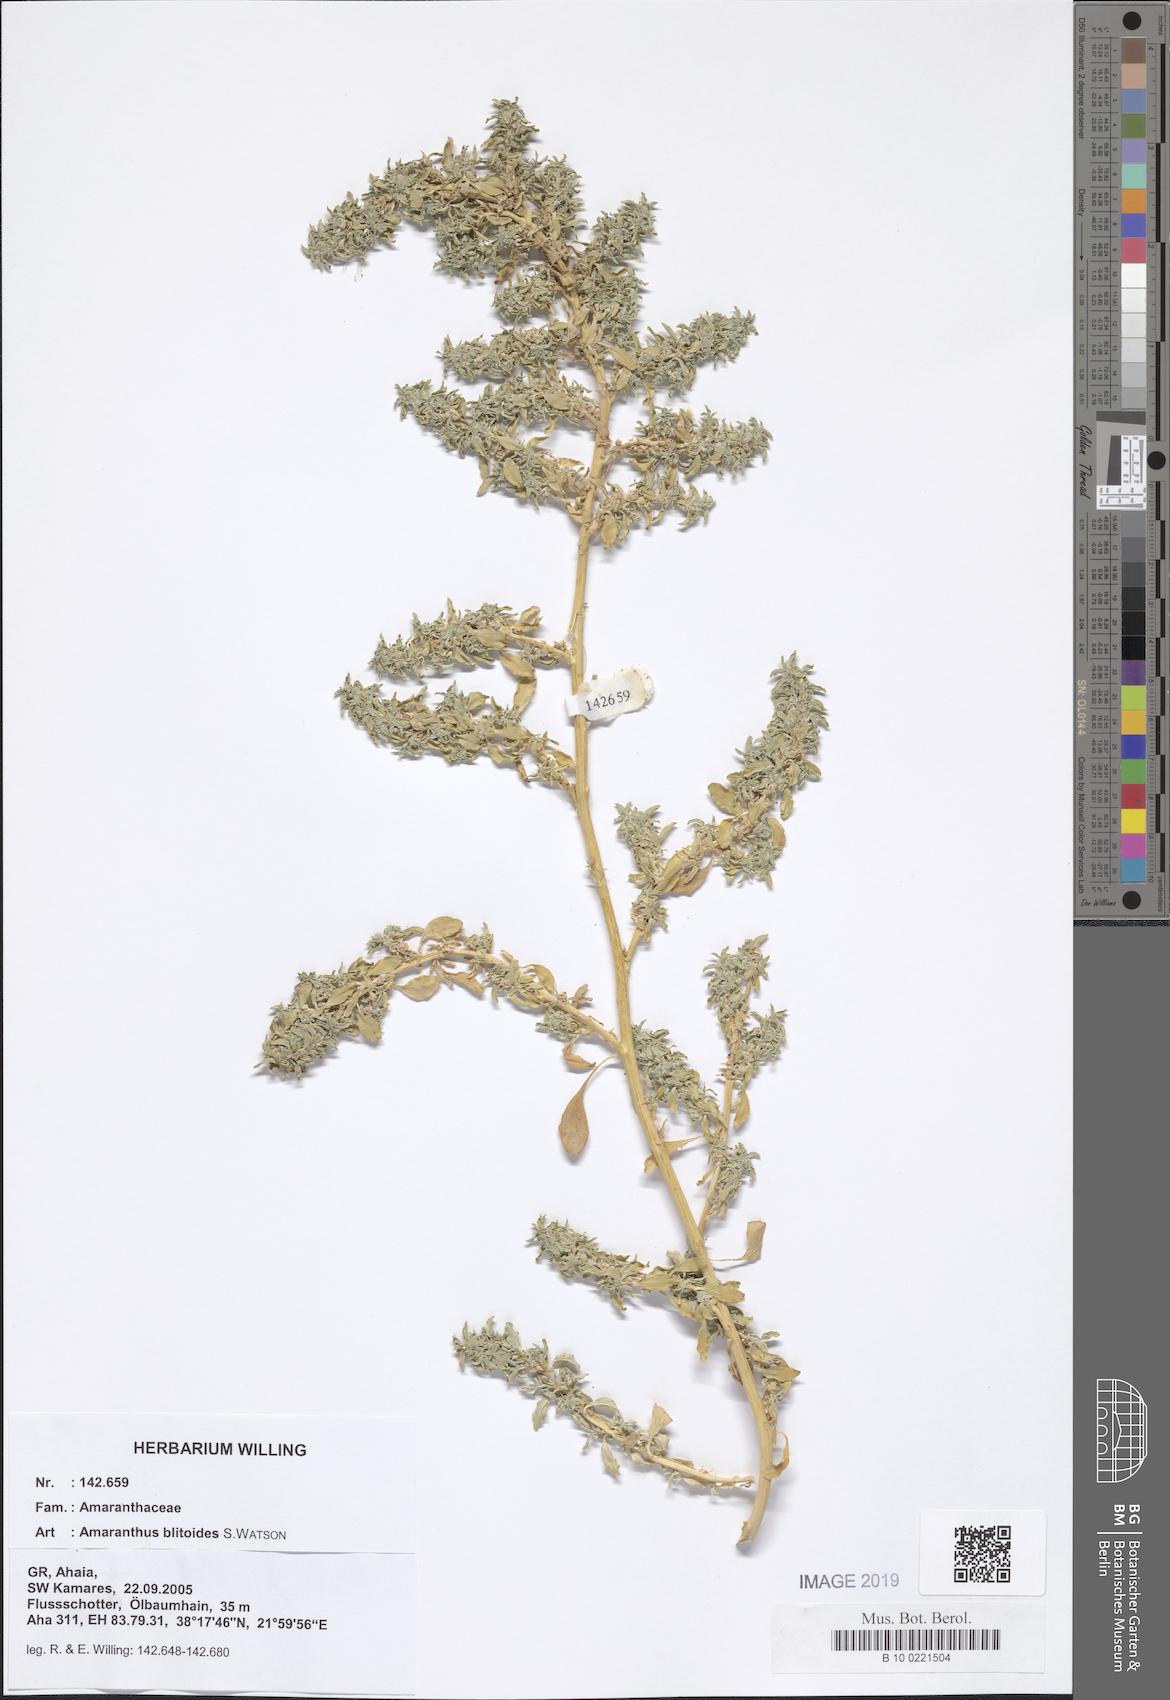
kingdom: Plantae
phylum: Tracheophyta
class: Magnoliopsida
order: Caryophyllales
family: Amaranthaceae
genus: Amaranthus
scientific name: Amaranthus blitoides
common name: Prostrate pigweed
